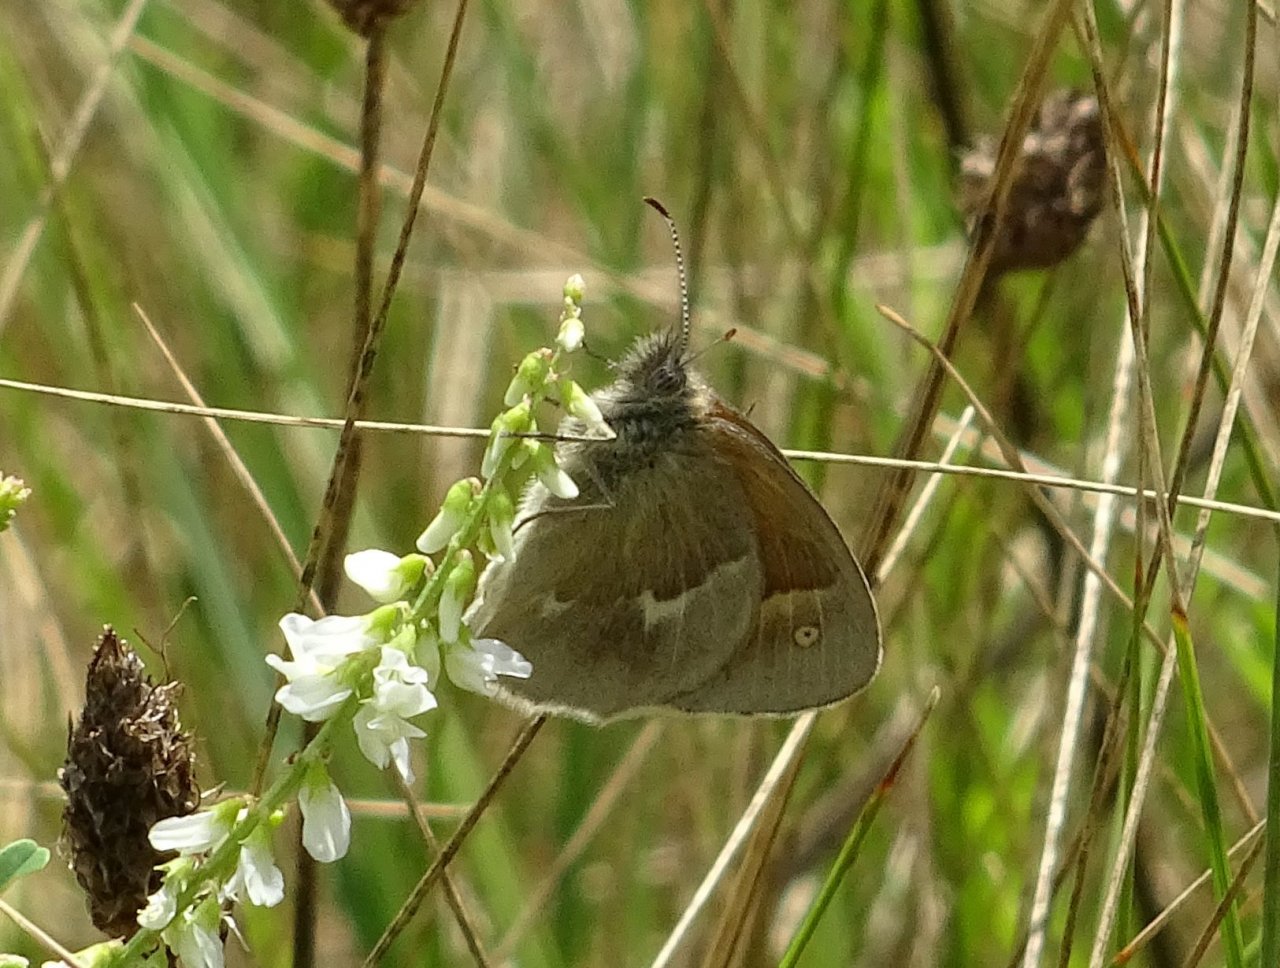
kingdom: Animalia
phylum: Arthropoda
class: Insecta
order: Lepidoptera
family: Nymphalidae
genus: Coenonympha
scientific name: Coenonympha tullia
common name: Large Heath
